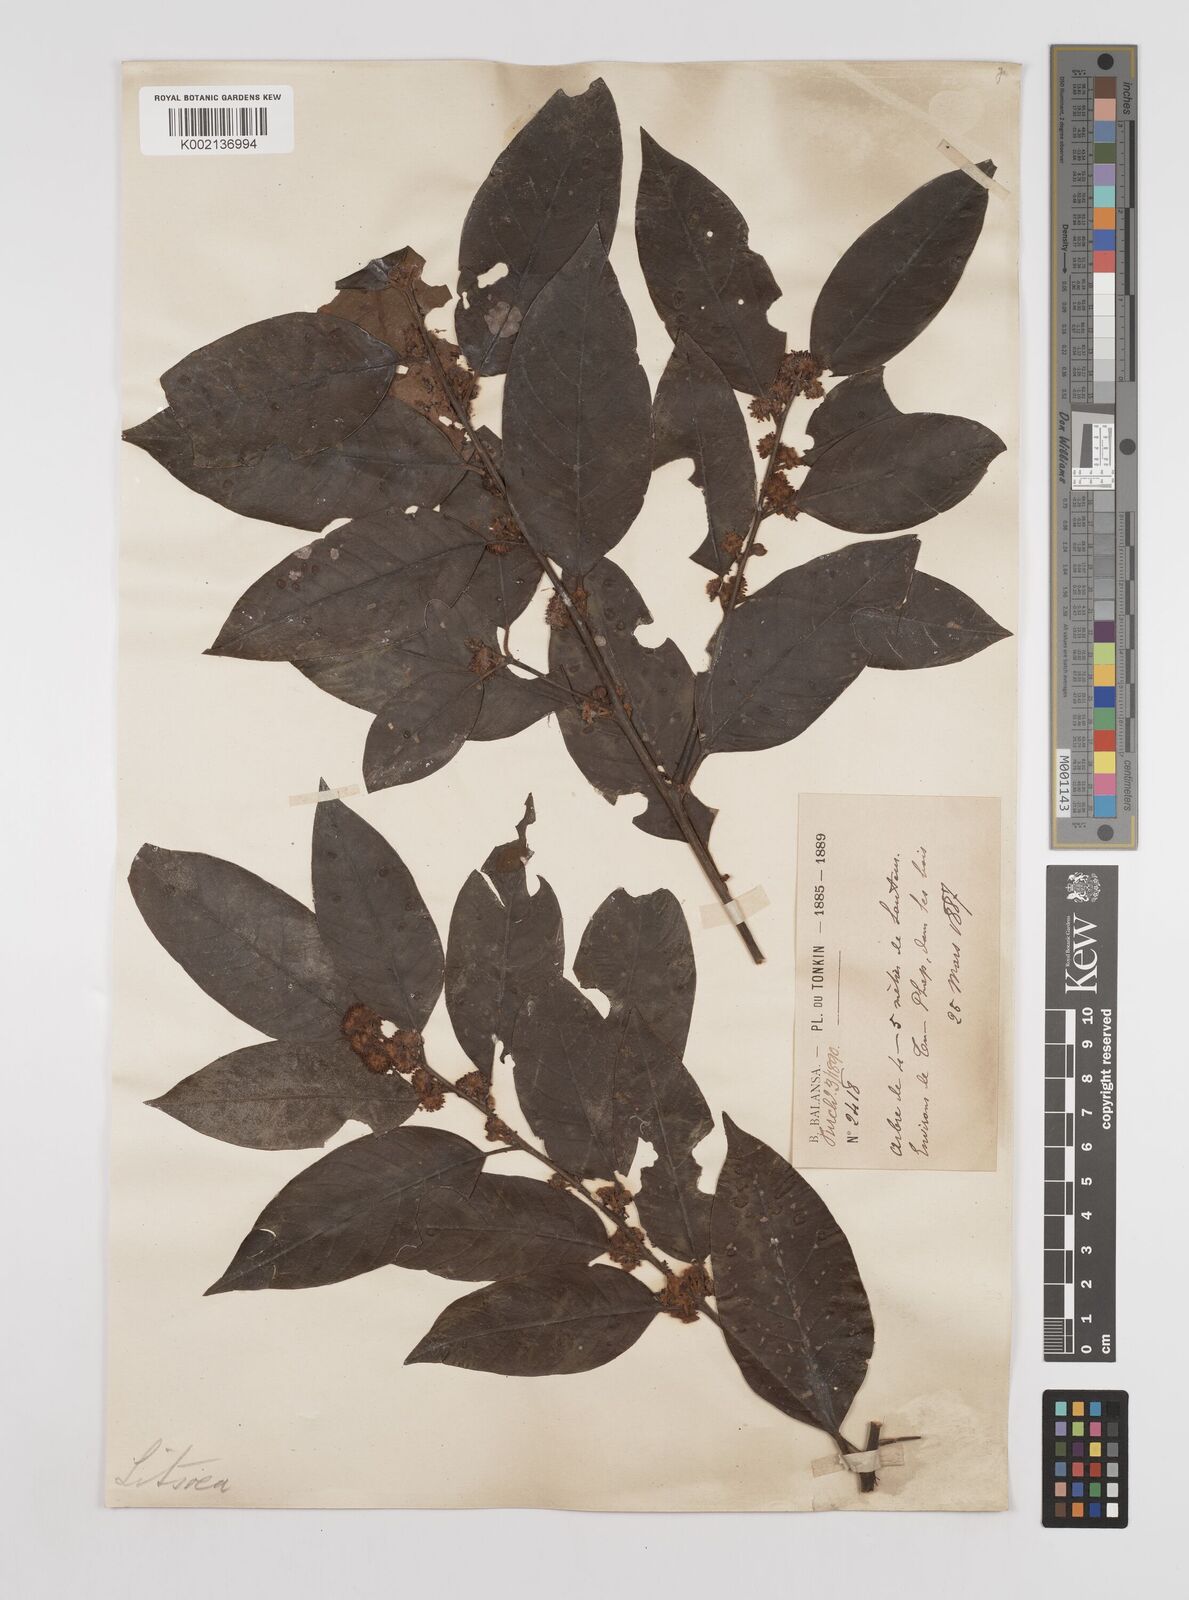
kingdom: Plantae
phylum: Tracheophyta
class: Magnoliopsida
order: Laurales
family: Lauraceae
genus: Litsea
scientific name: Litsea umbellata
